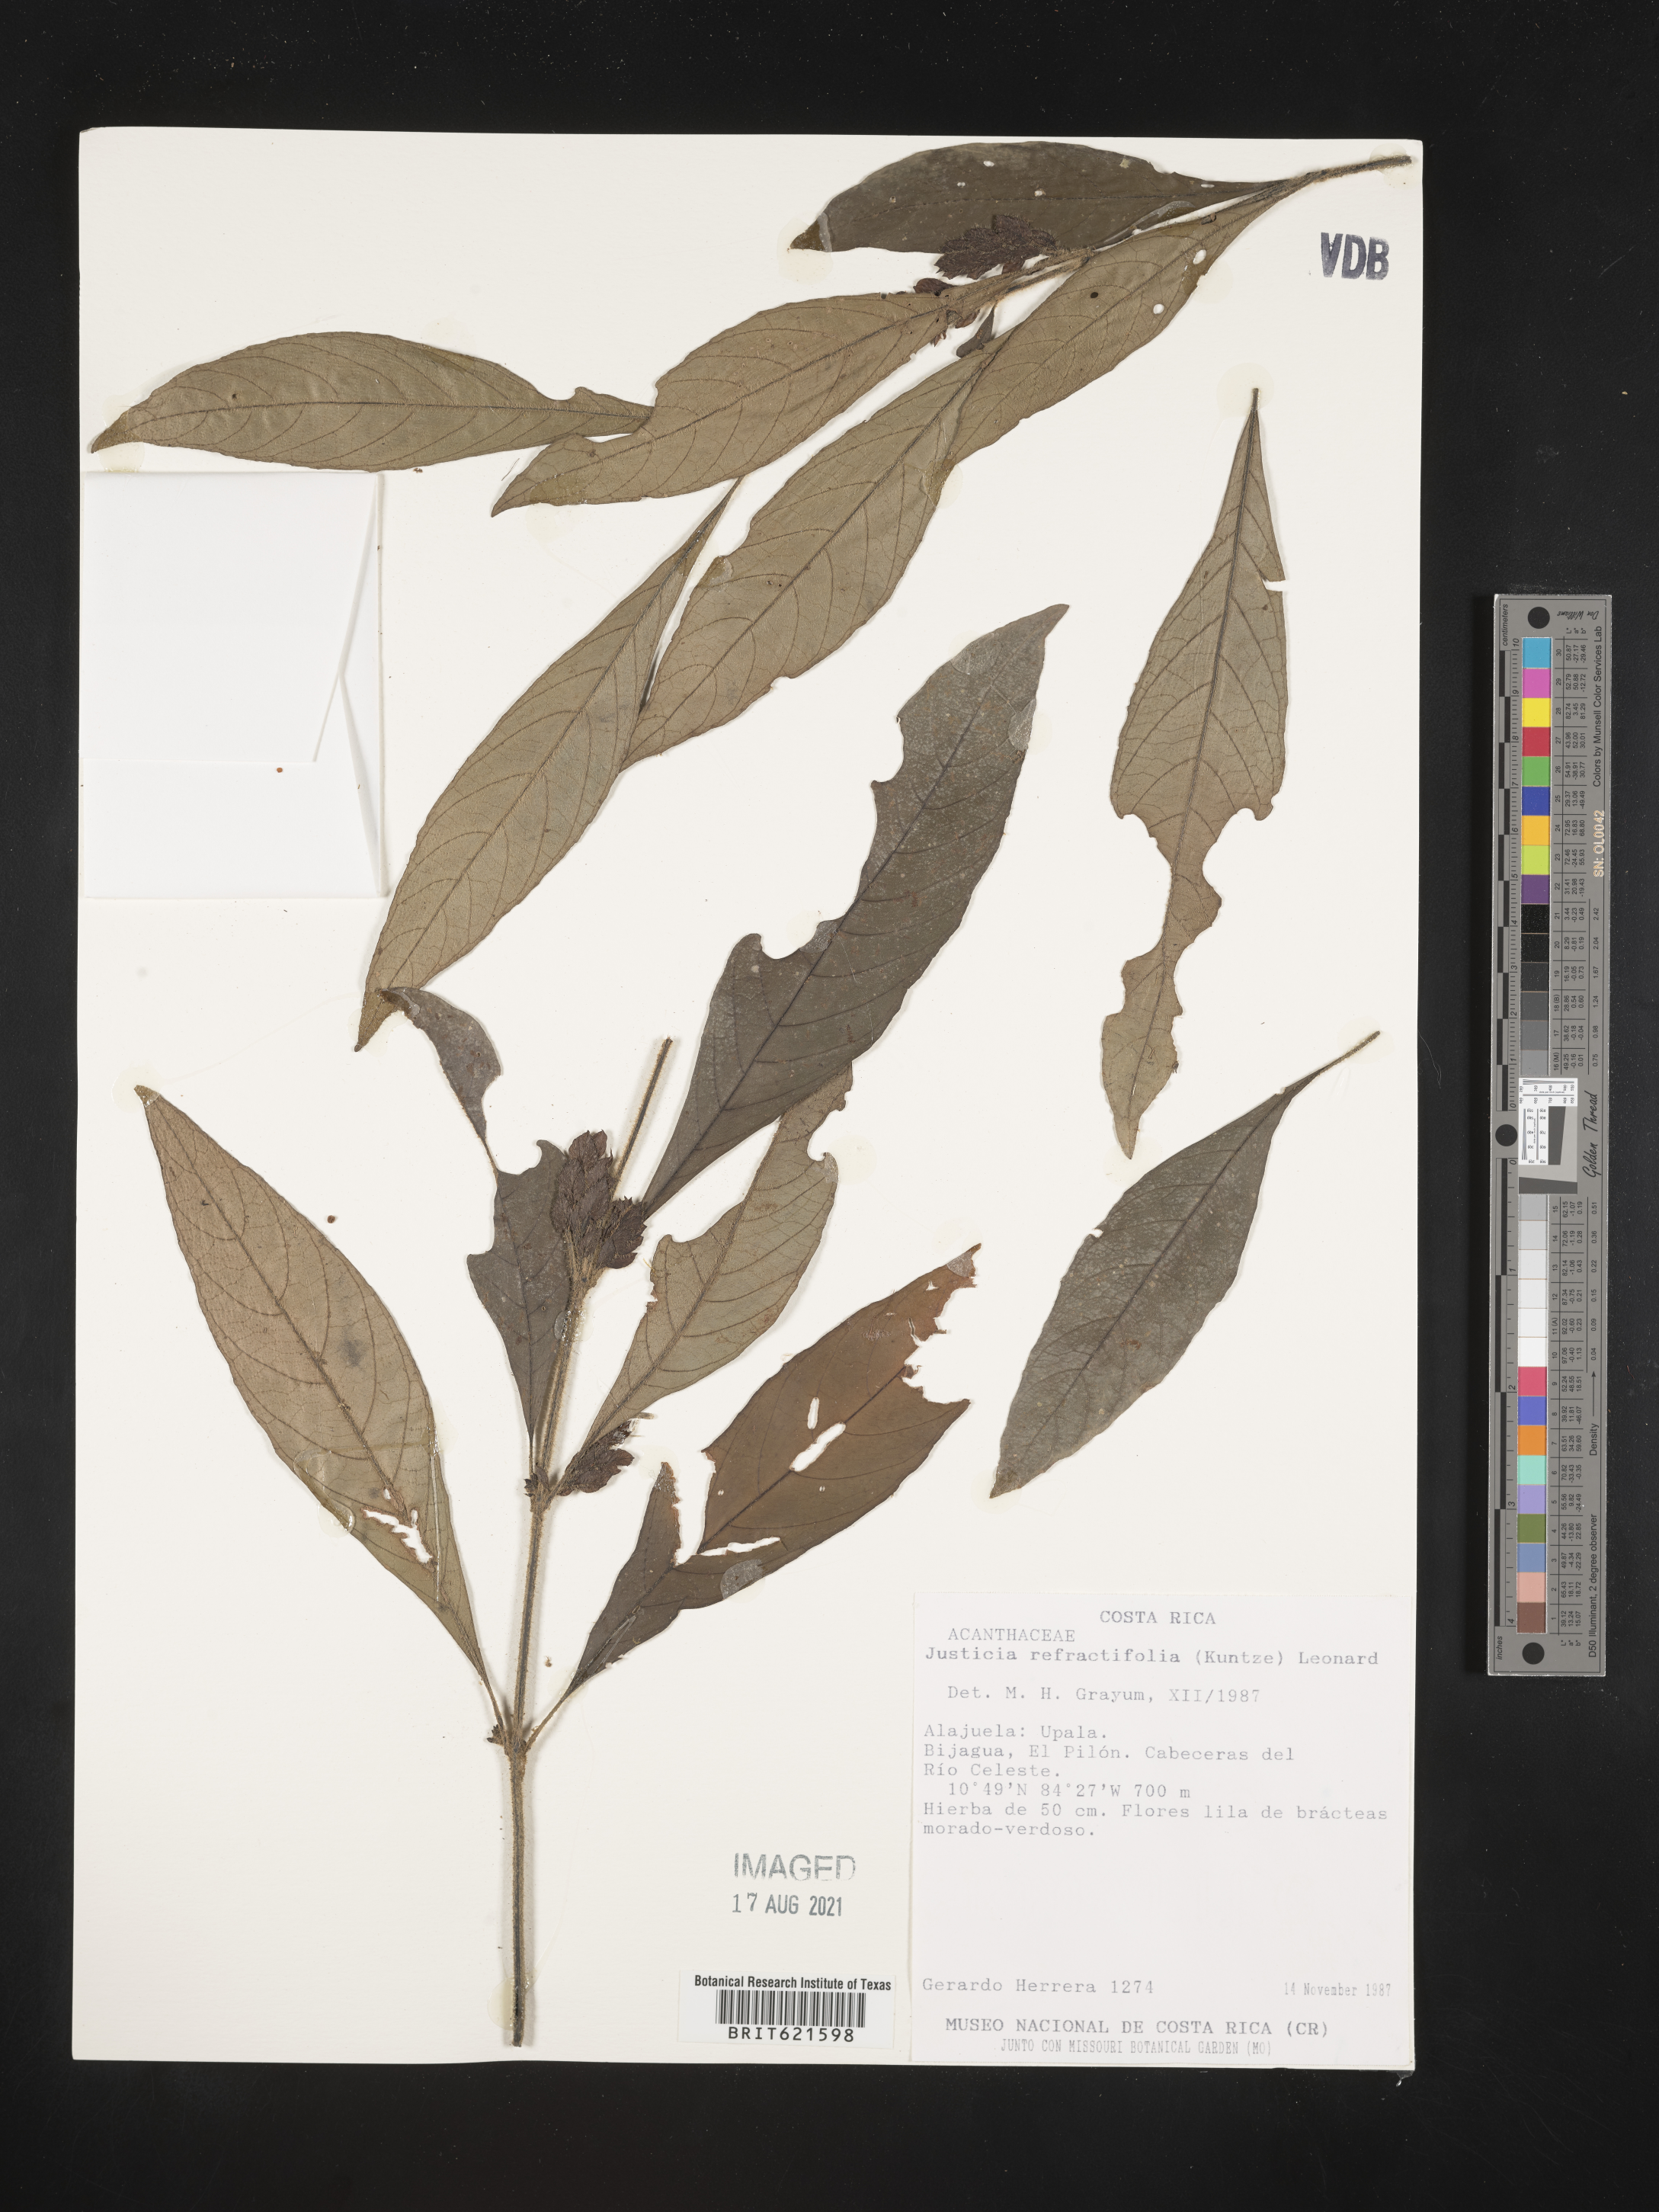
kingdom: Plantae
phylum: Tracheophyta
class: Magnoliopsida
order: Lamiales
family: Acanthaceae
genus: Justicia
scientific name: Justicia refractifolia
